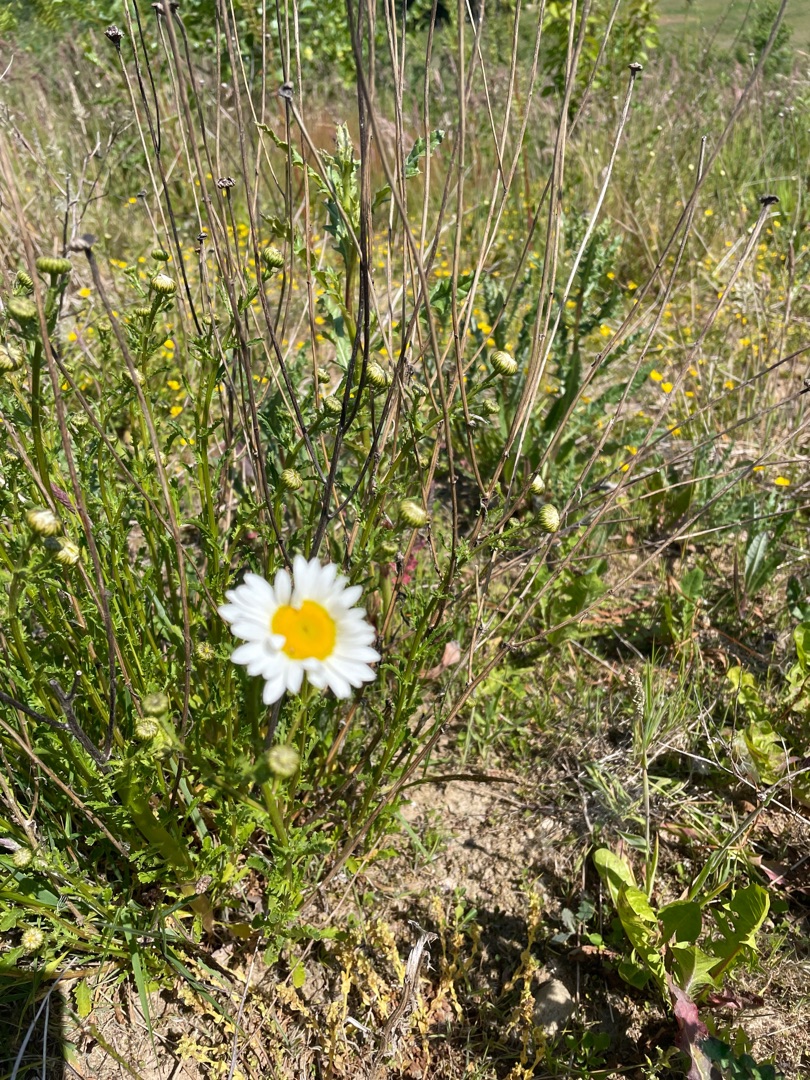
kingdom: Plantae
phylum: Tracheophyta
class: Magnoliopsida
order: Asterales
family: Asteraceae
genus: Leucanthemum
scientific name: Leucanthemum vulgare
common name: Hvid okseøje
